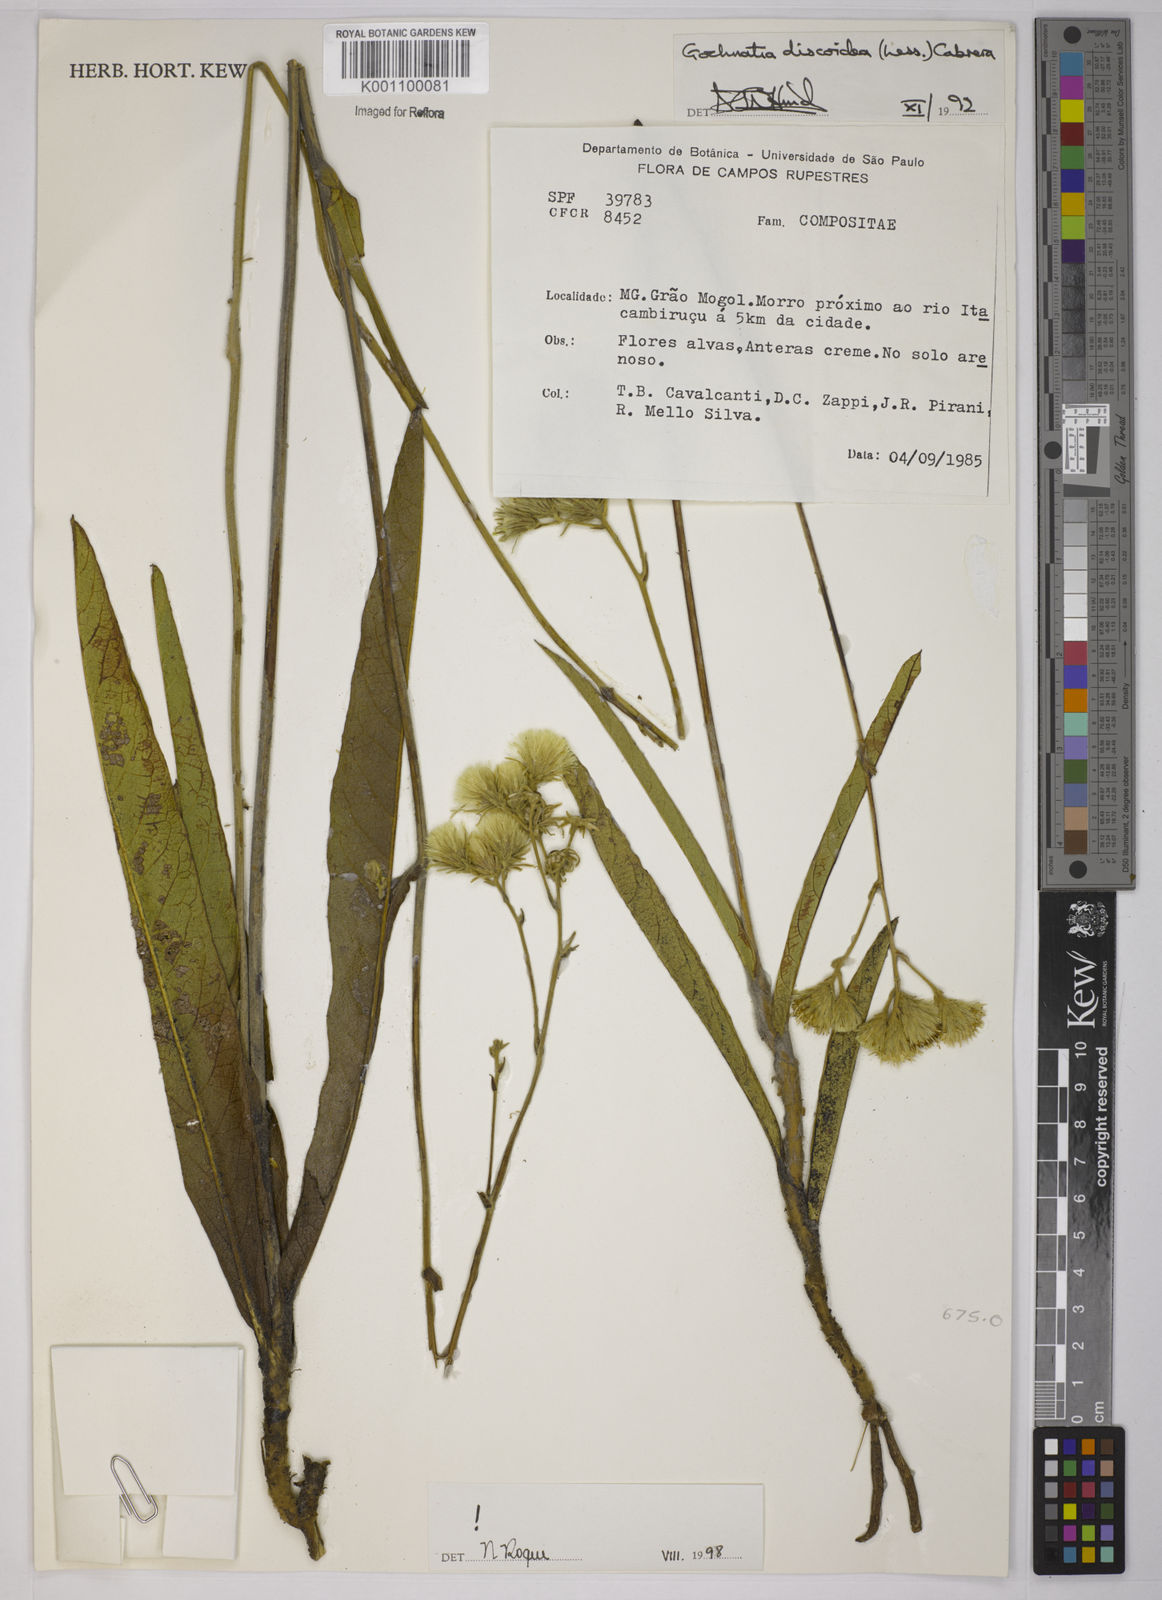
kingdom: Plantae
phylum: Tracheophyta
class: Magnoliopsida
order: Asterales
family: Asteraceae
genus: Richterago
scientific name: Richterago discoidea
